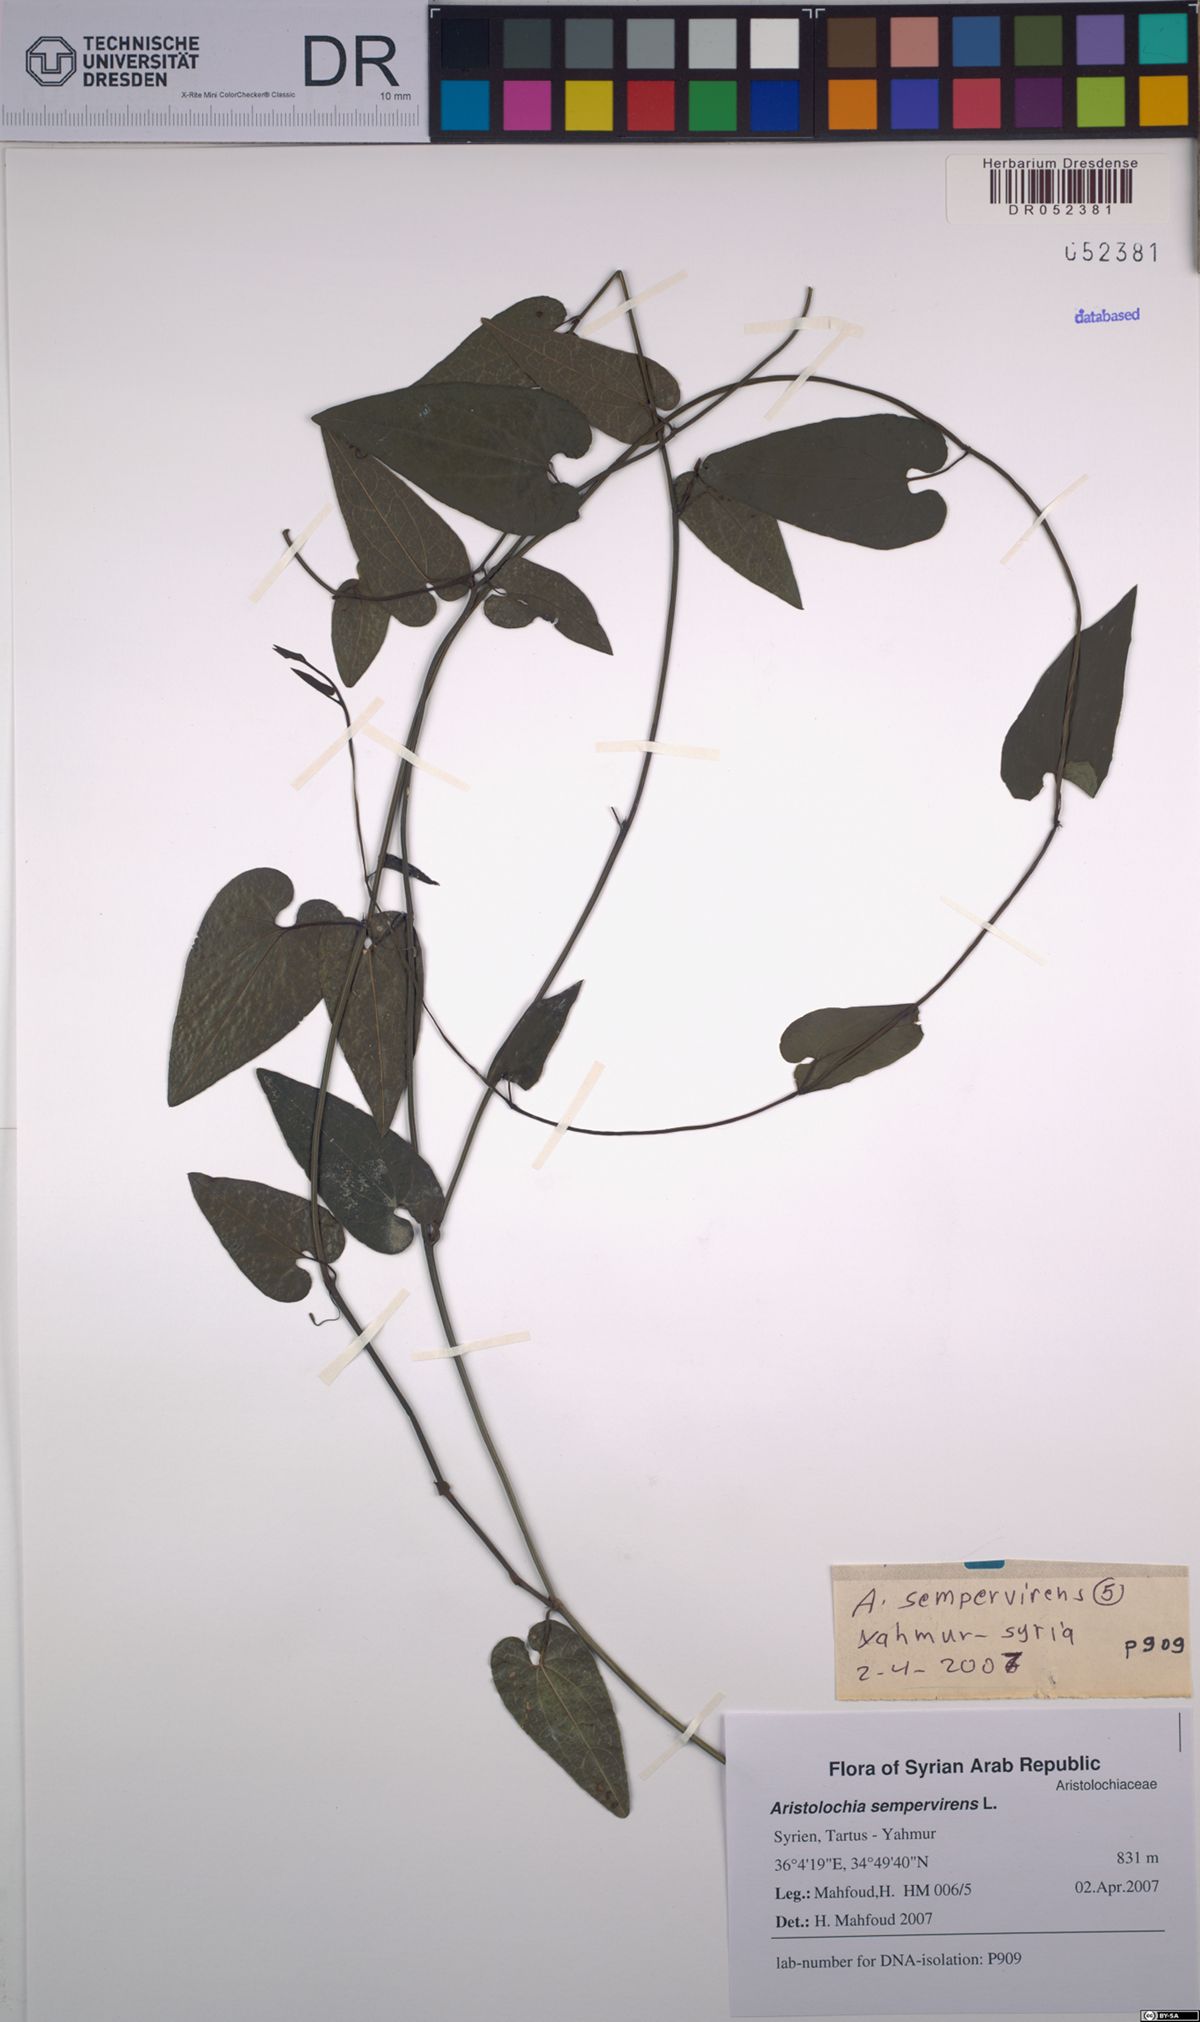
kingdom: Plantae
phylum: Tracheophyta
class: Magnoliopsida
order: Piperales
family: Aristolochiaceae
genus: Aristolochia
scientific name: Aristolochia sempervirens
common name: Long birthwort
